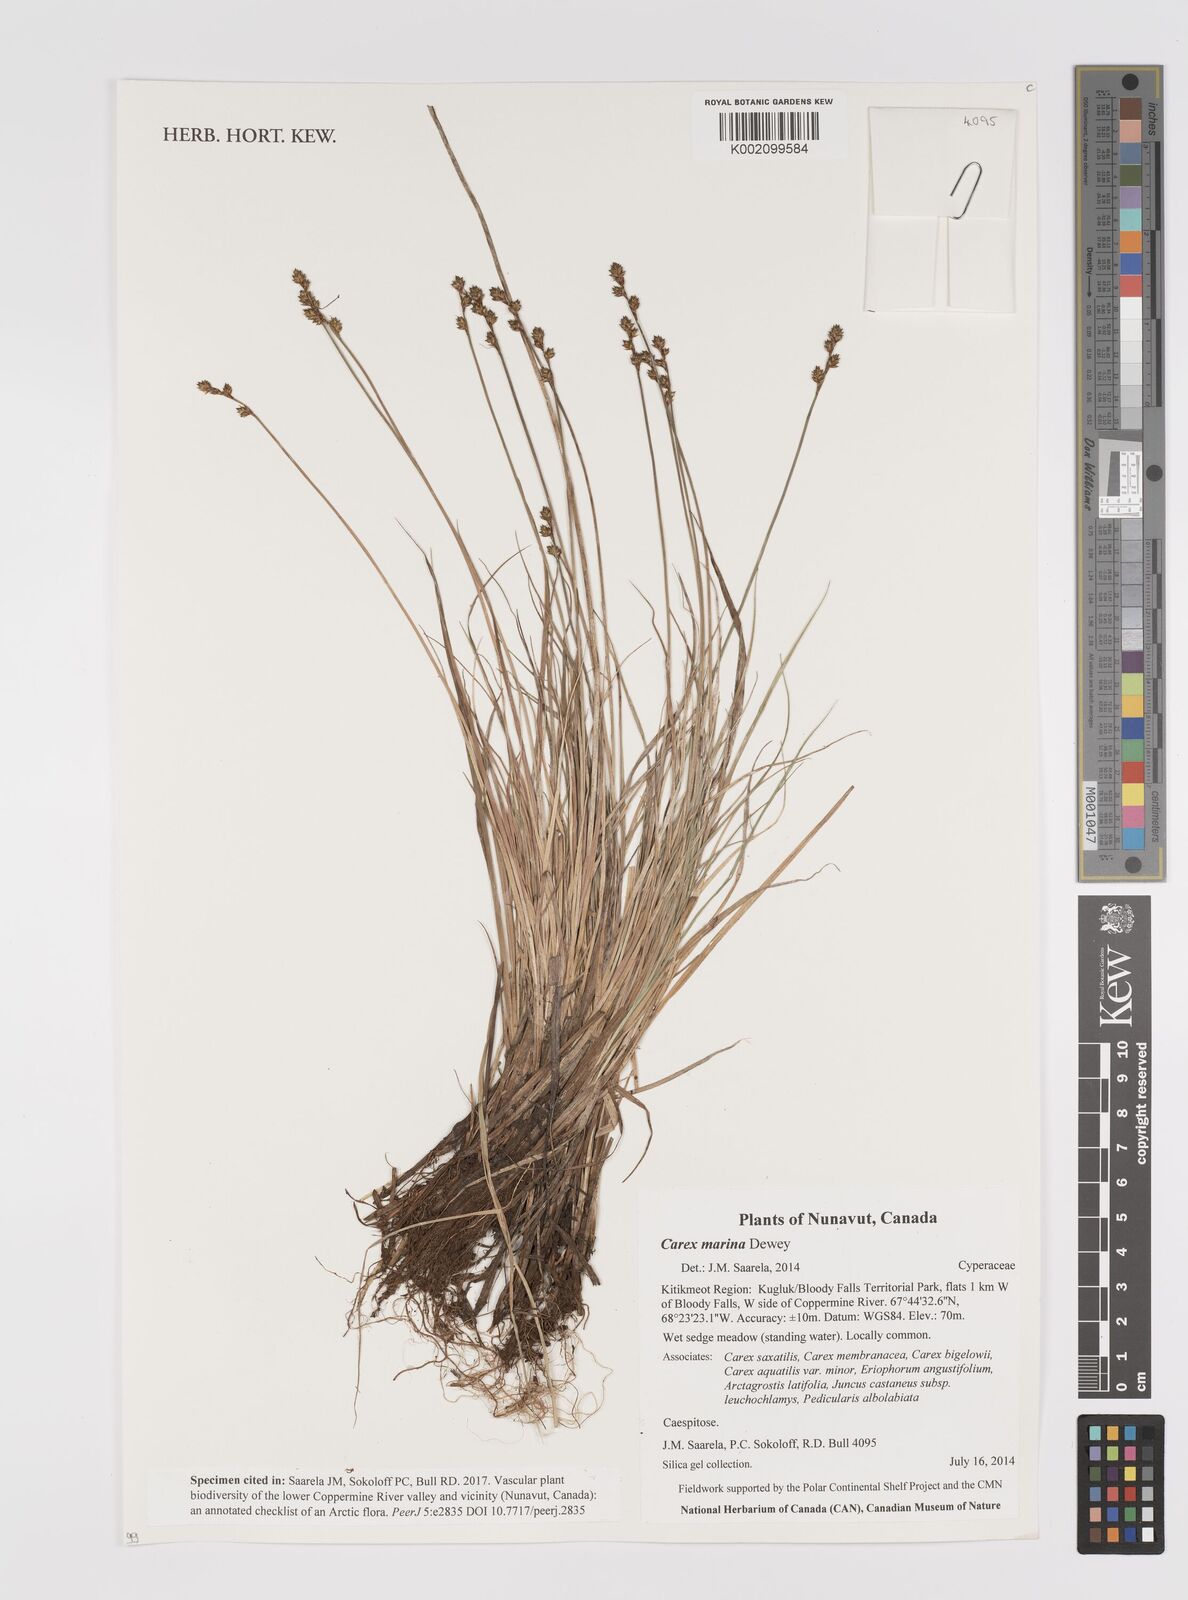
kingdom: Plantae
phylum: Tracheophyta
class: Liliopsida
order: Poales
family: Cyperaceae
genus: Carex
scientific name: Carex marina
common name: Seashore sedge
